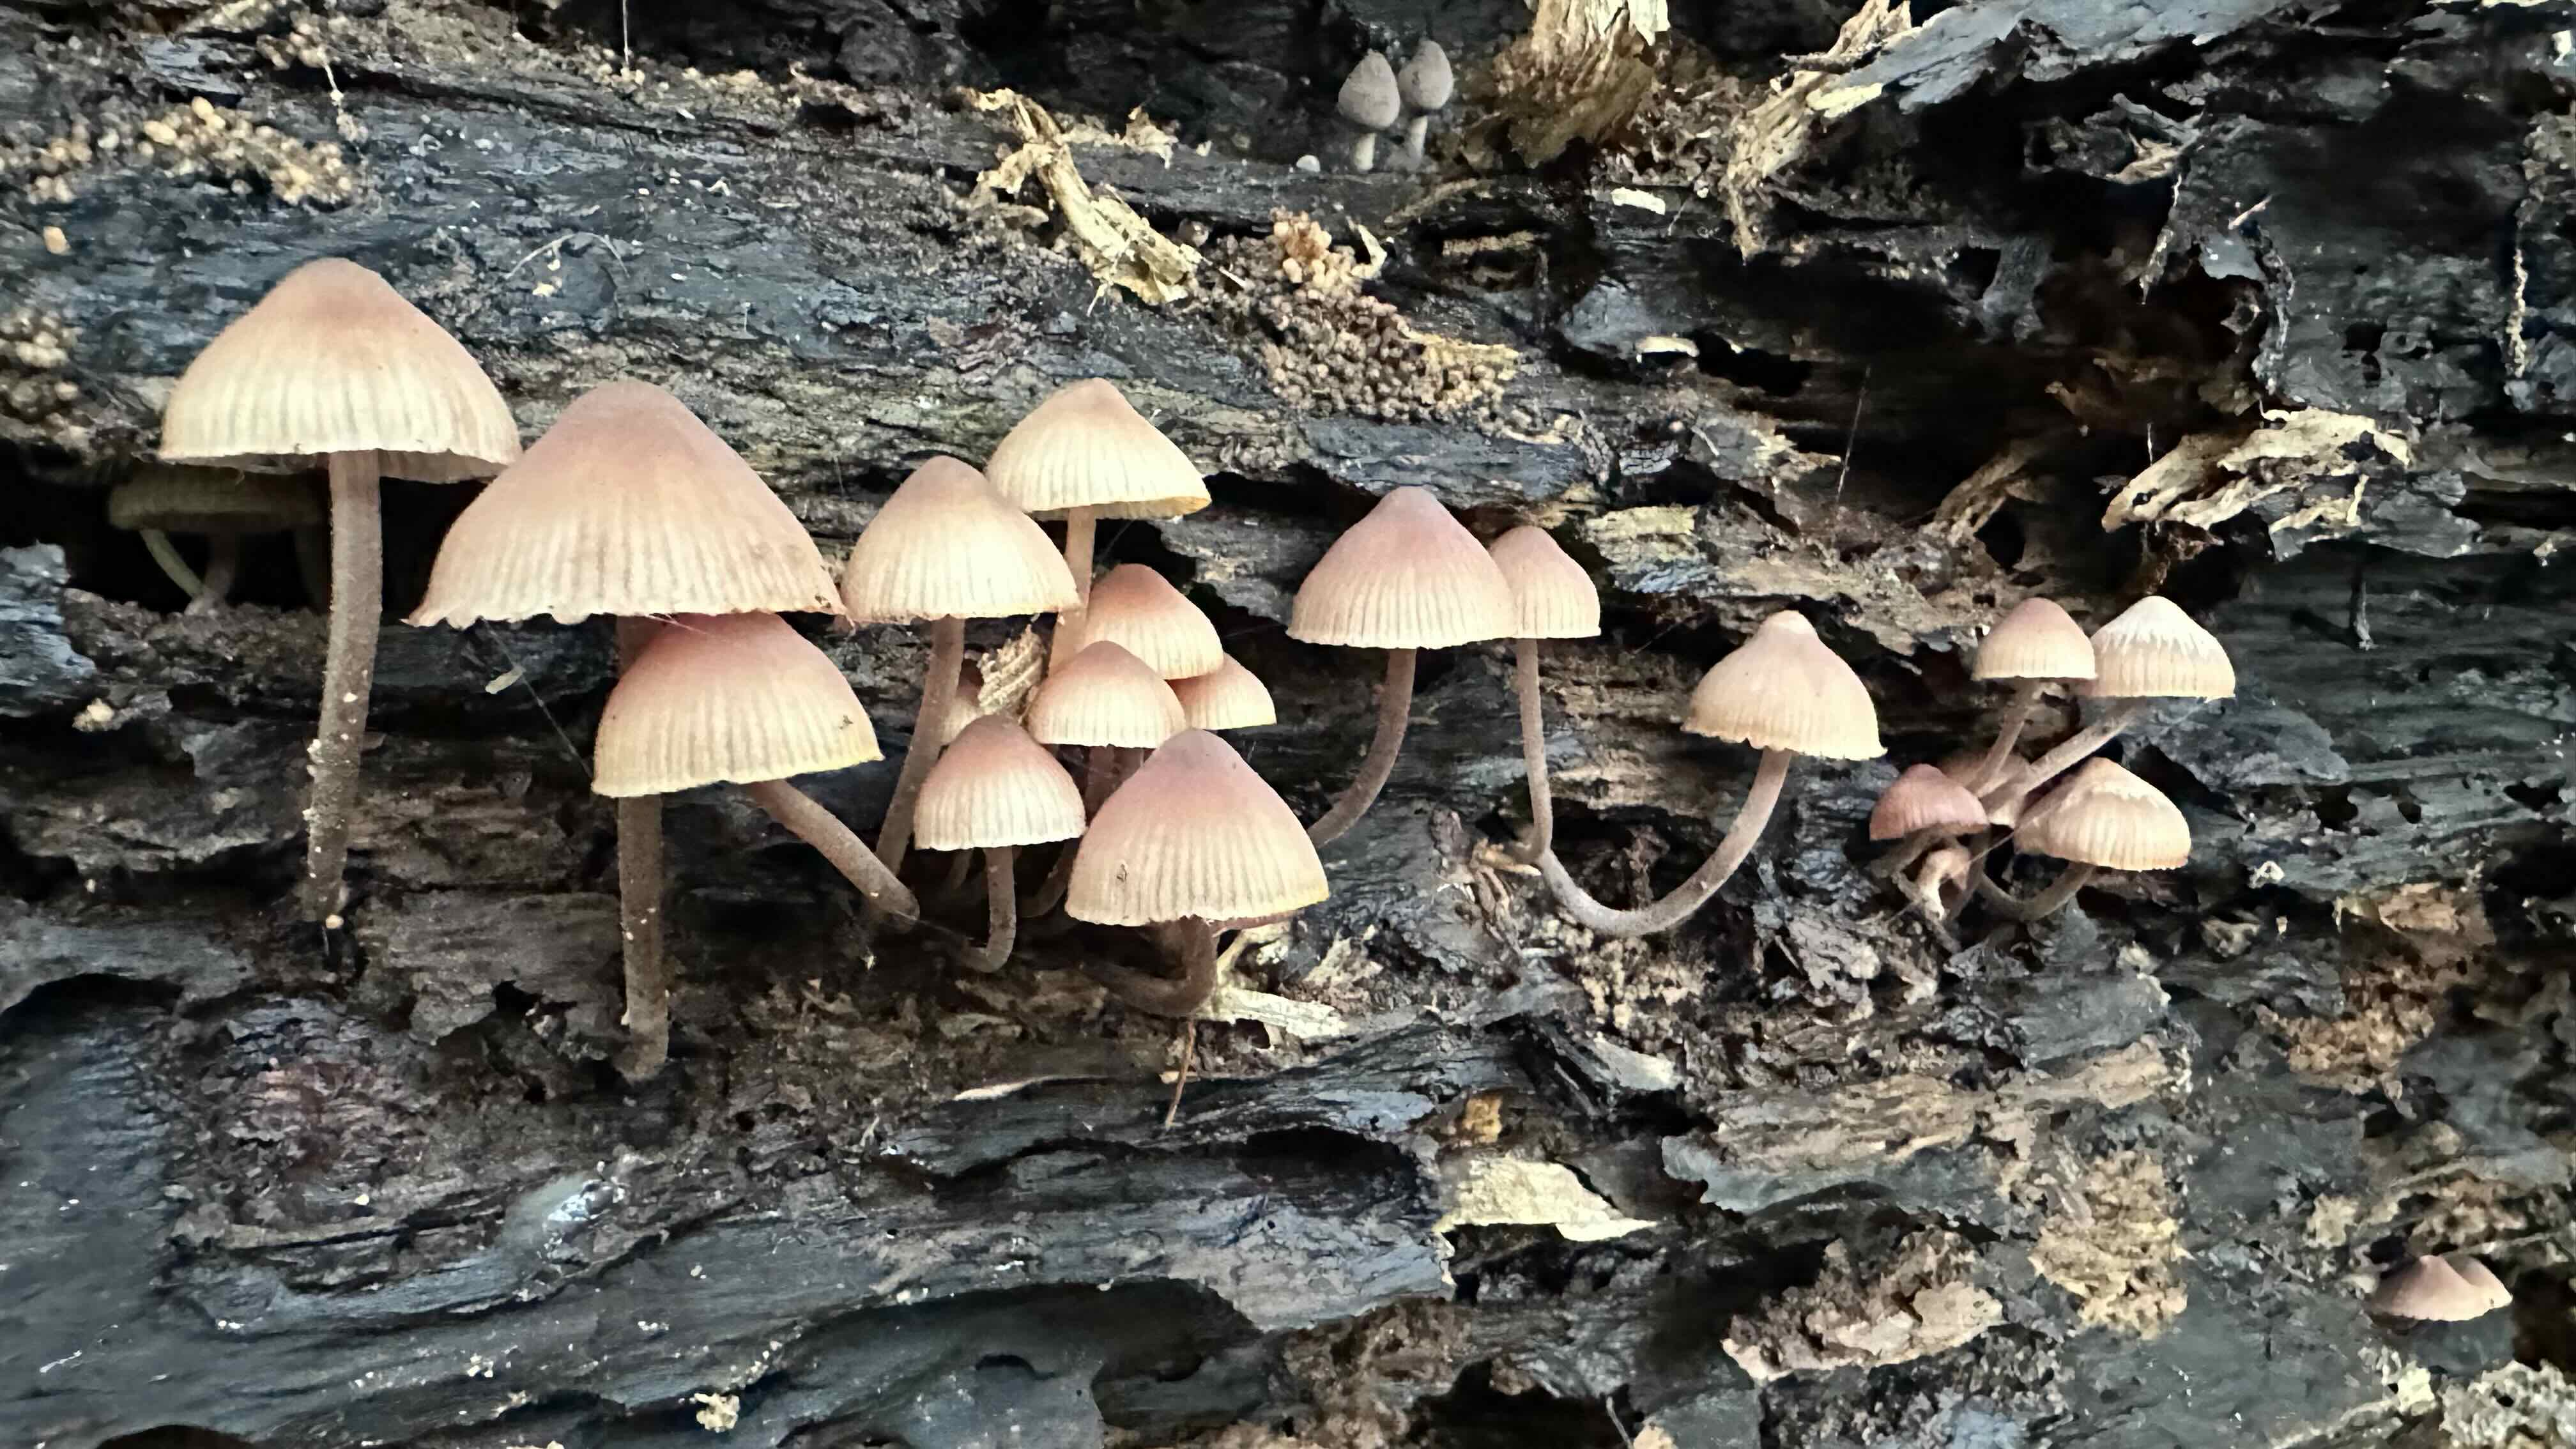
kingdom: Fungi
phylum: Basidiomycota
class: Agaricomycetes
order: Agaricales
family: Mycenaceae
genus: Mycena
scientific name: Mycena haematopus
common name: blødende huesvamp
